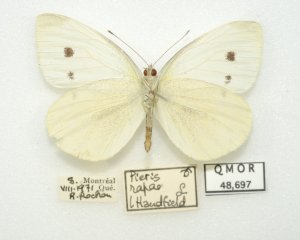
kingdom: Animalia
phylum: Arthropoda
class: Insecta
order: Lepidoptera
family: Pieridae
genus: Pieris
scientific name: Pieris rapae
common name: Cabbage White
